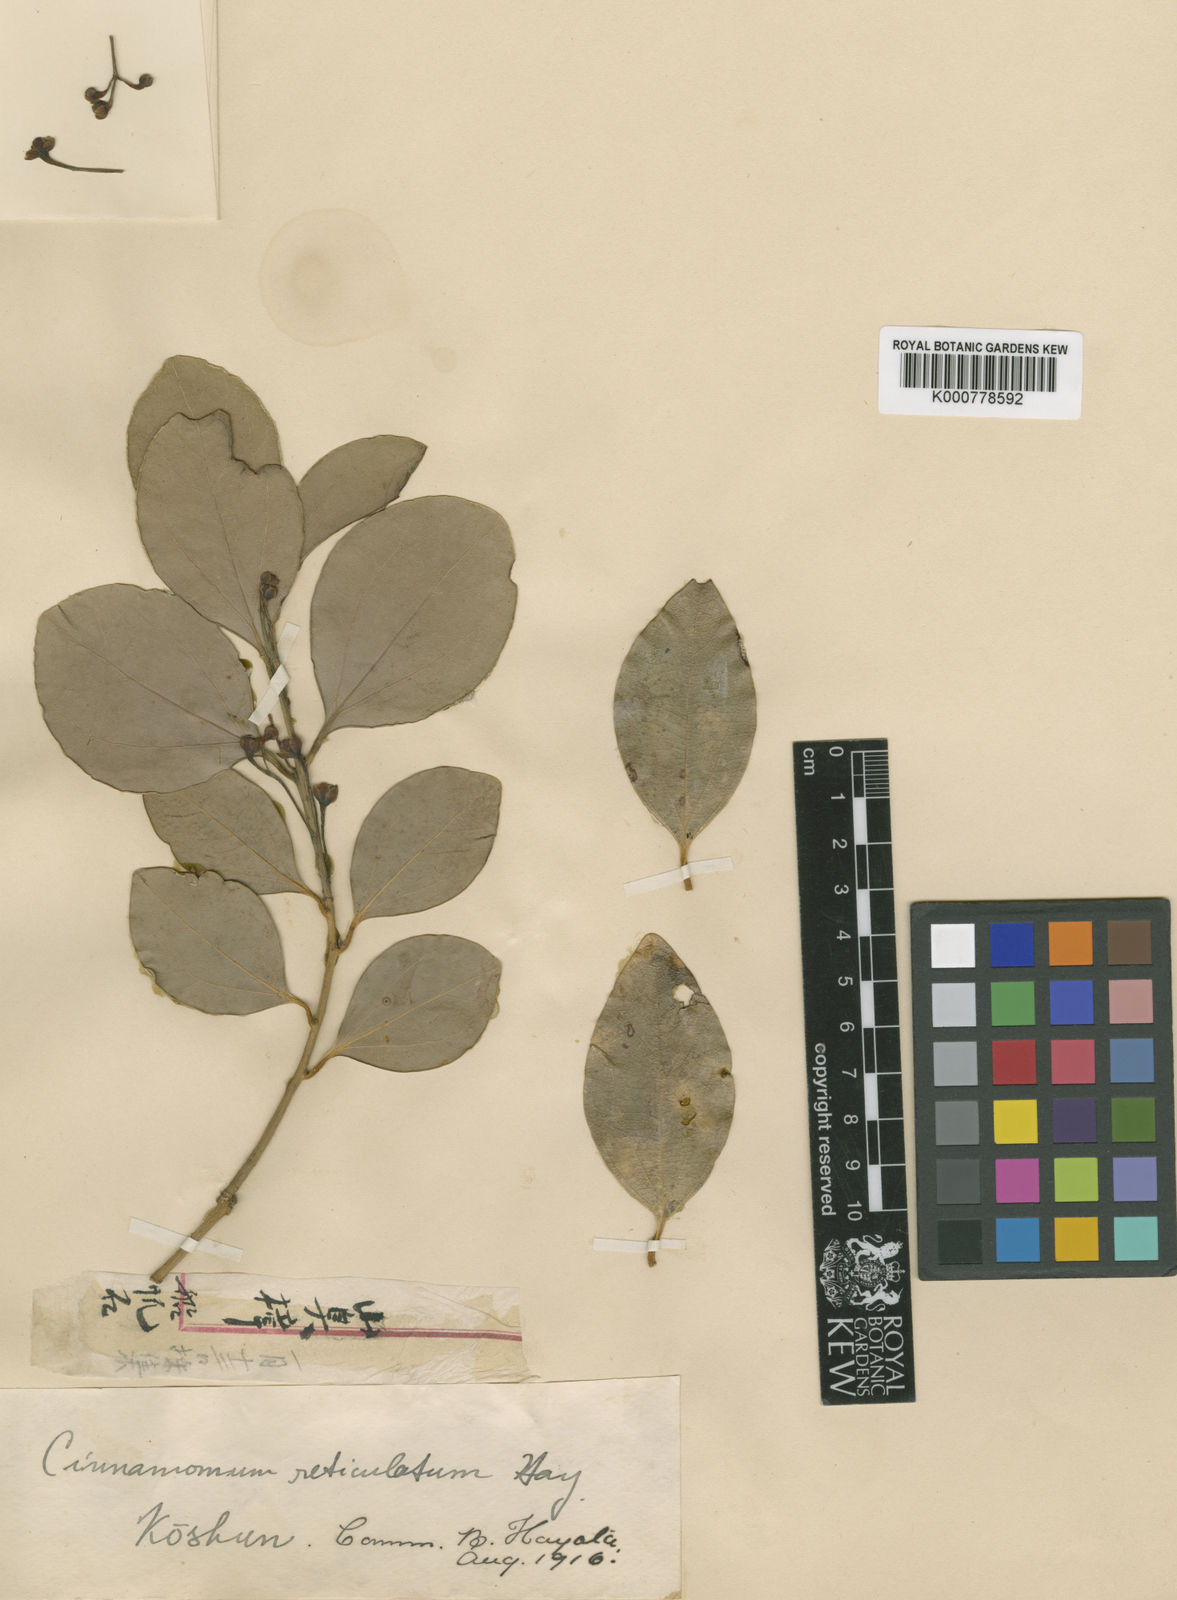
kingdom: Plantae
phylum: Tracheophyta
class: Magnoliopsida
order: Laurales
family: Lauraceae
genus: Cinnamomum
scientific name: Cinnamomum reticulatum
